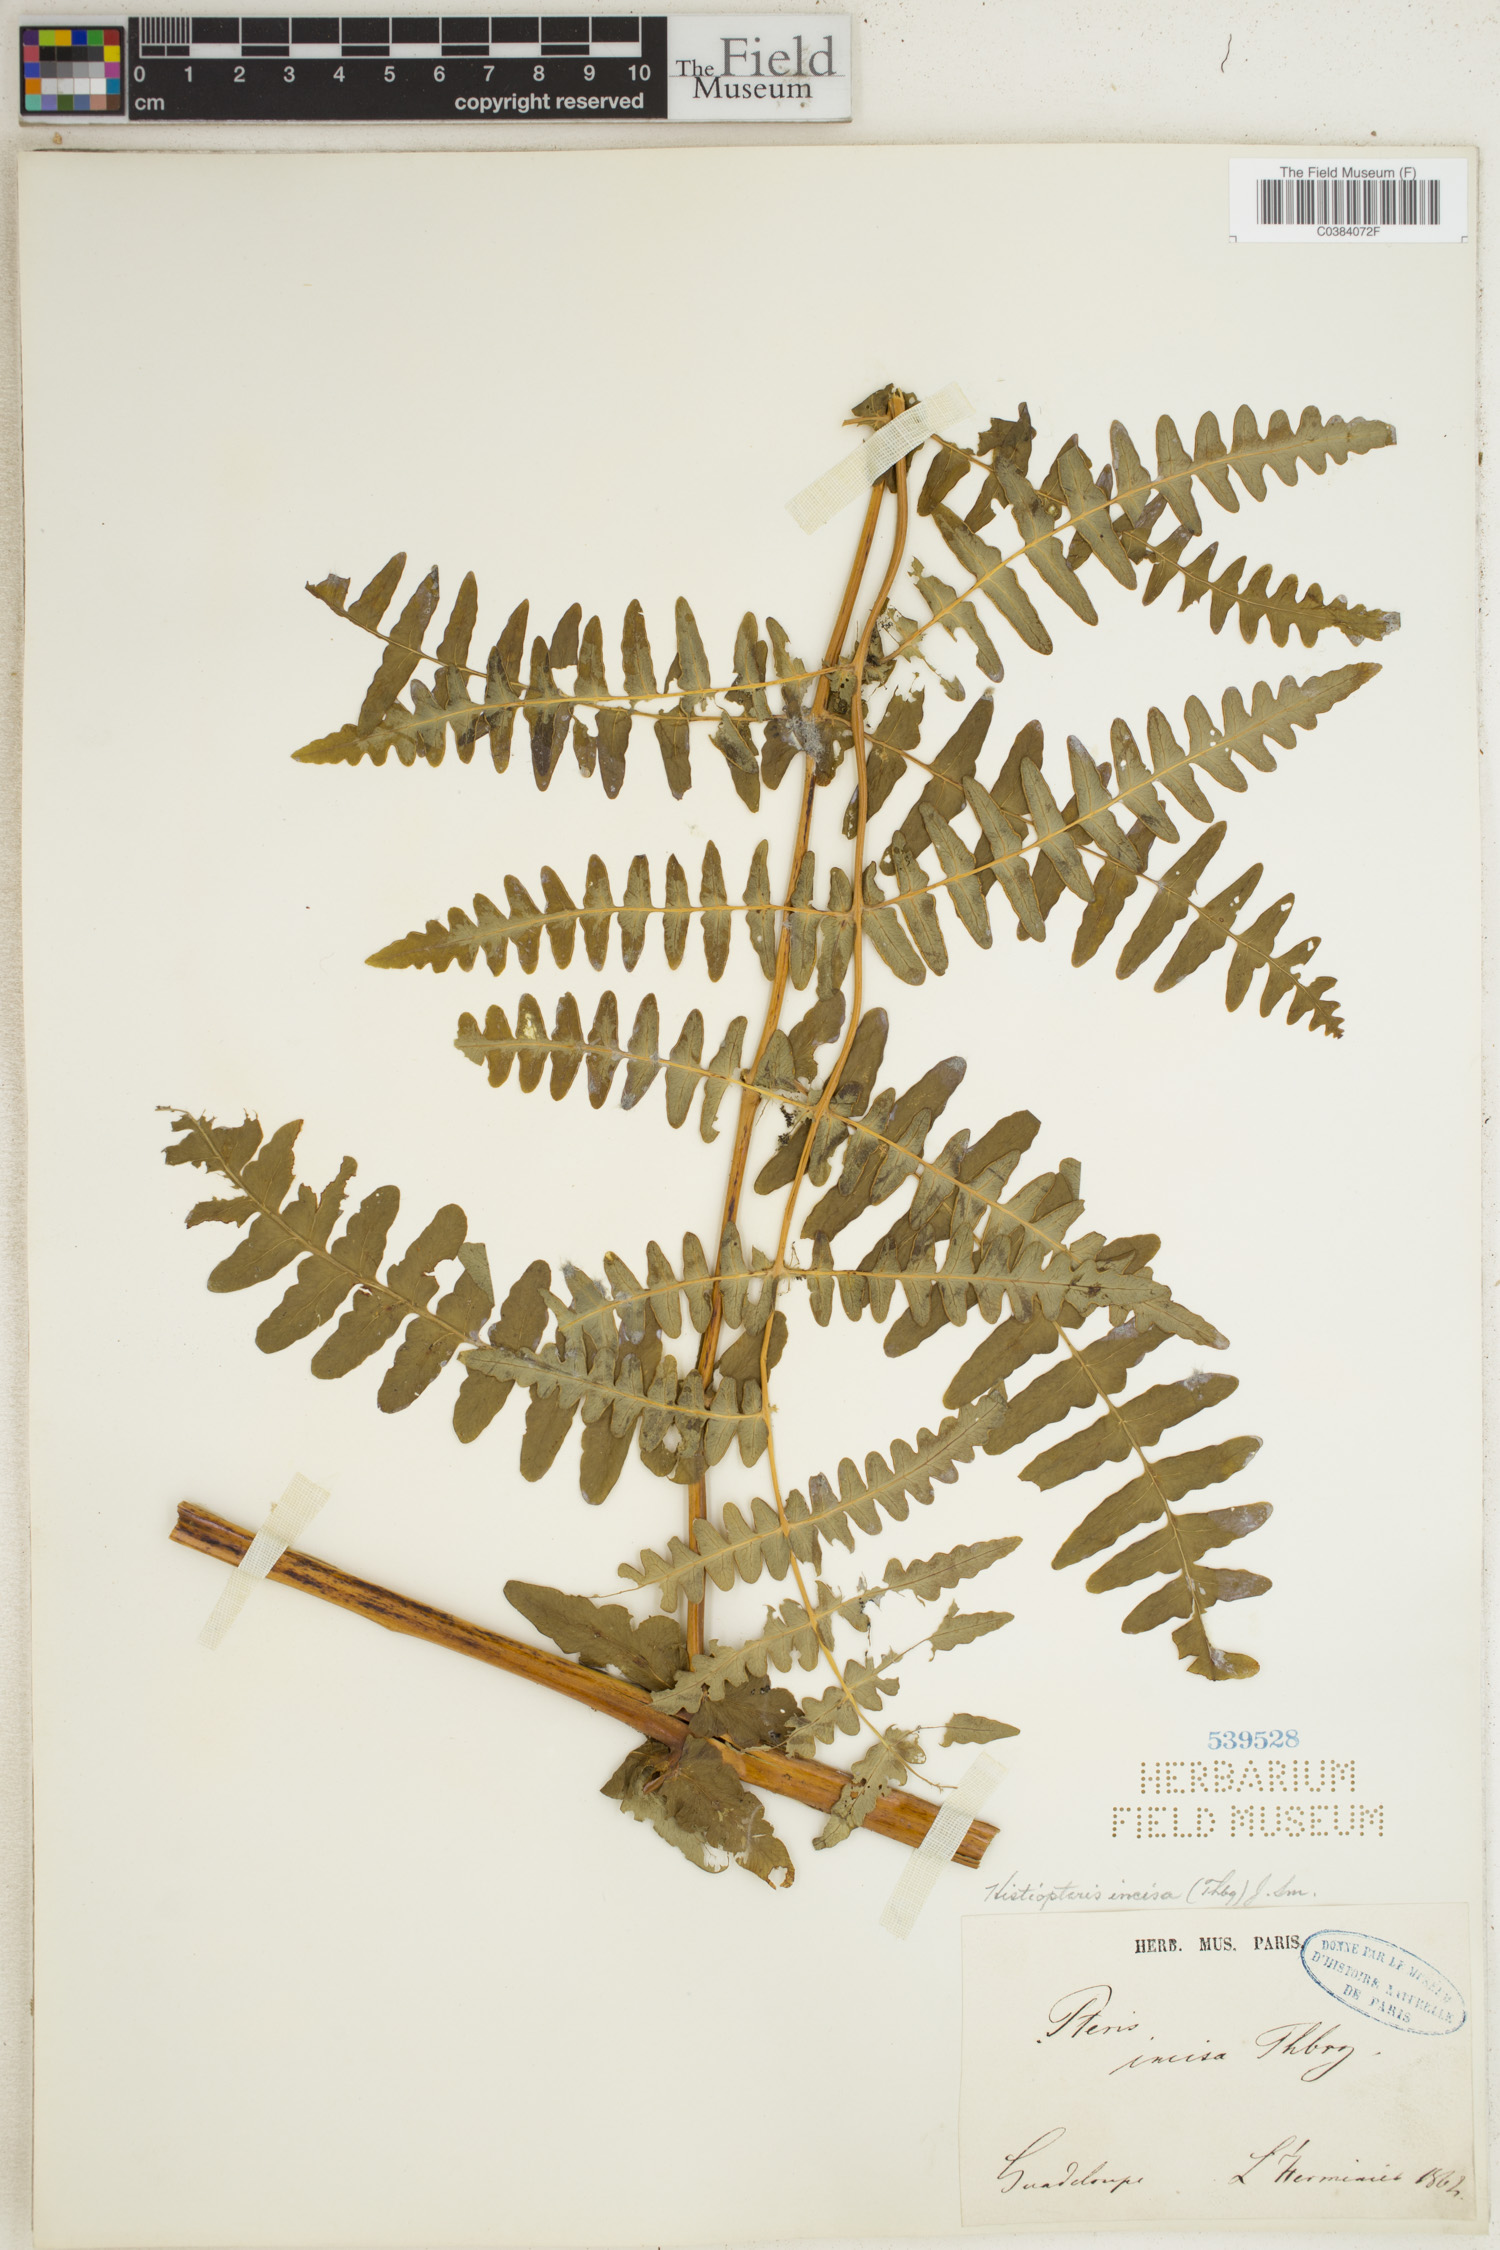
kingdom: Plantae
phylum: Tracheophyta
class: Polypodiopsida
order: Polypodiales
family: Dennstaedtiaceae
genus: Histiopteris
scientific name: Histiopteris incisa
